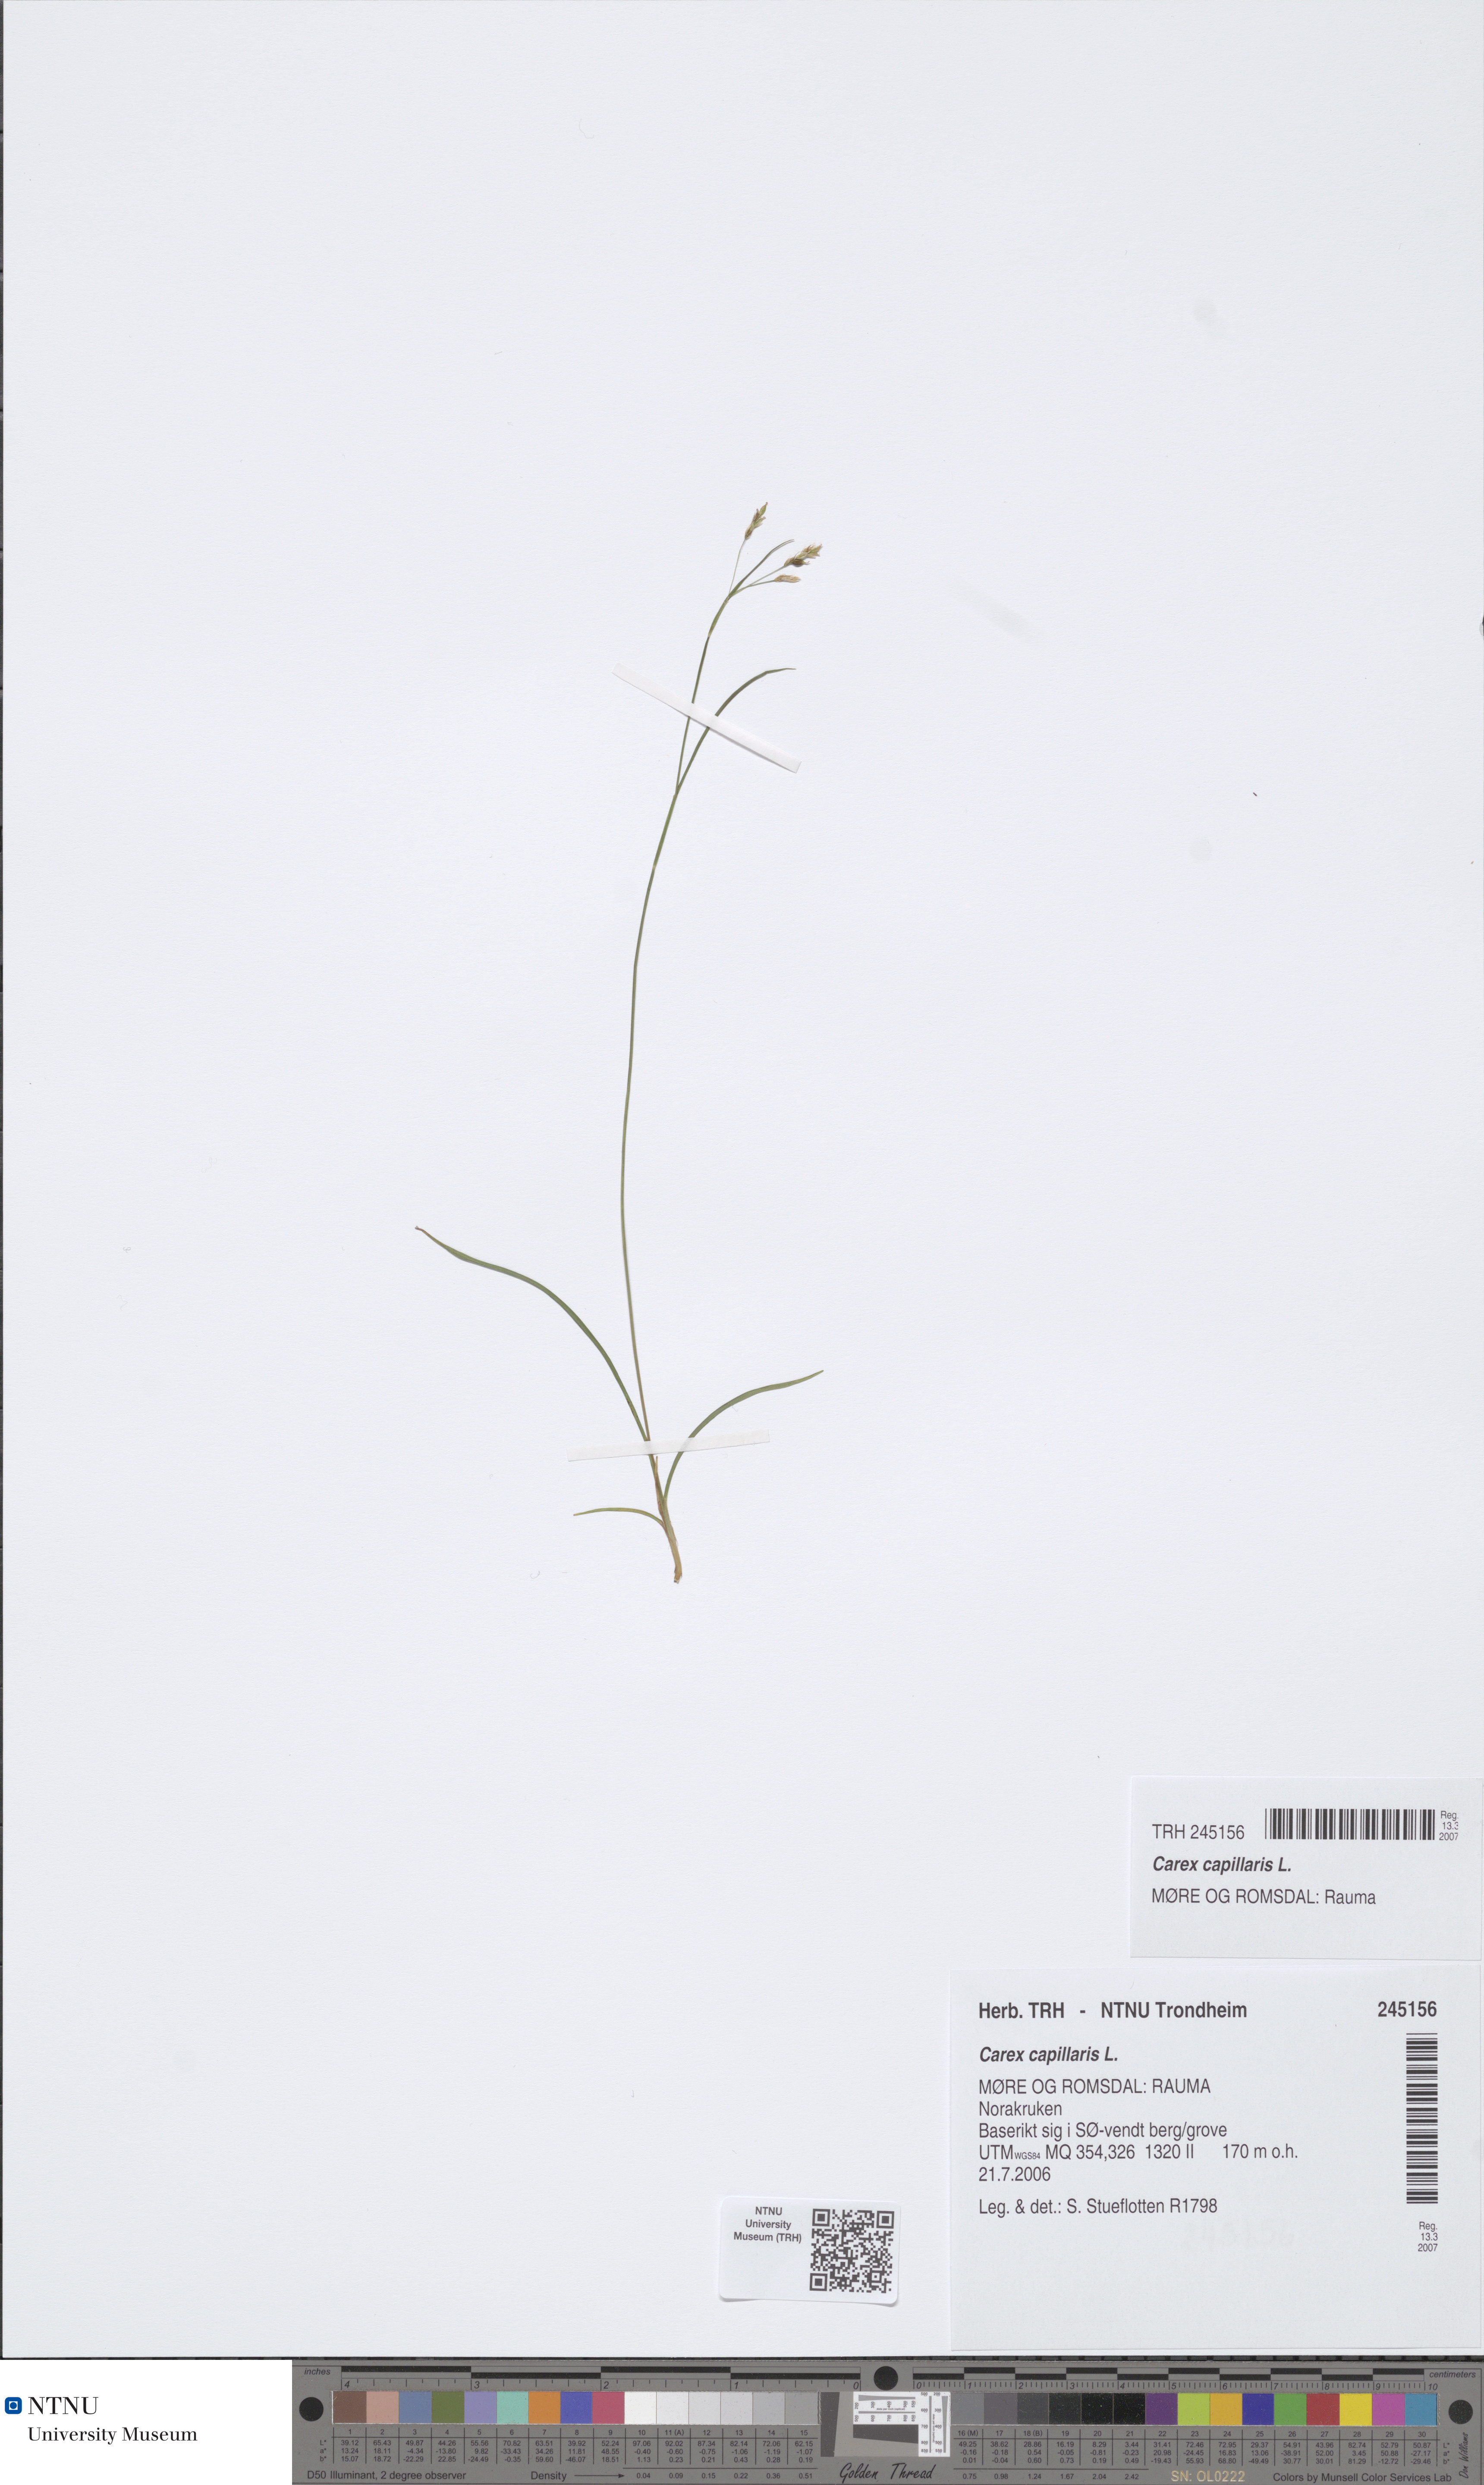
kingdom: Plantae
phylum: Tracheophyta
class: Liliopsida
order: Poales
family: Cyperaceae
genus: Carex
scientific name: Carex capillaris
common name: Hair sedge
